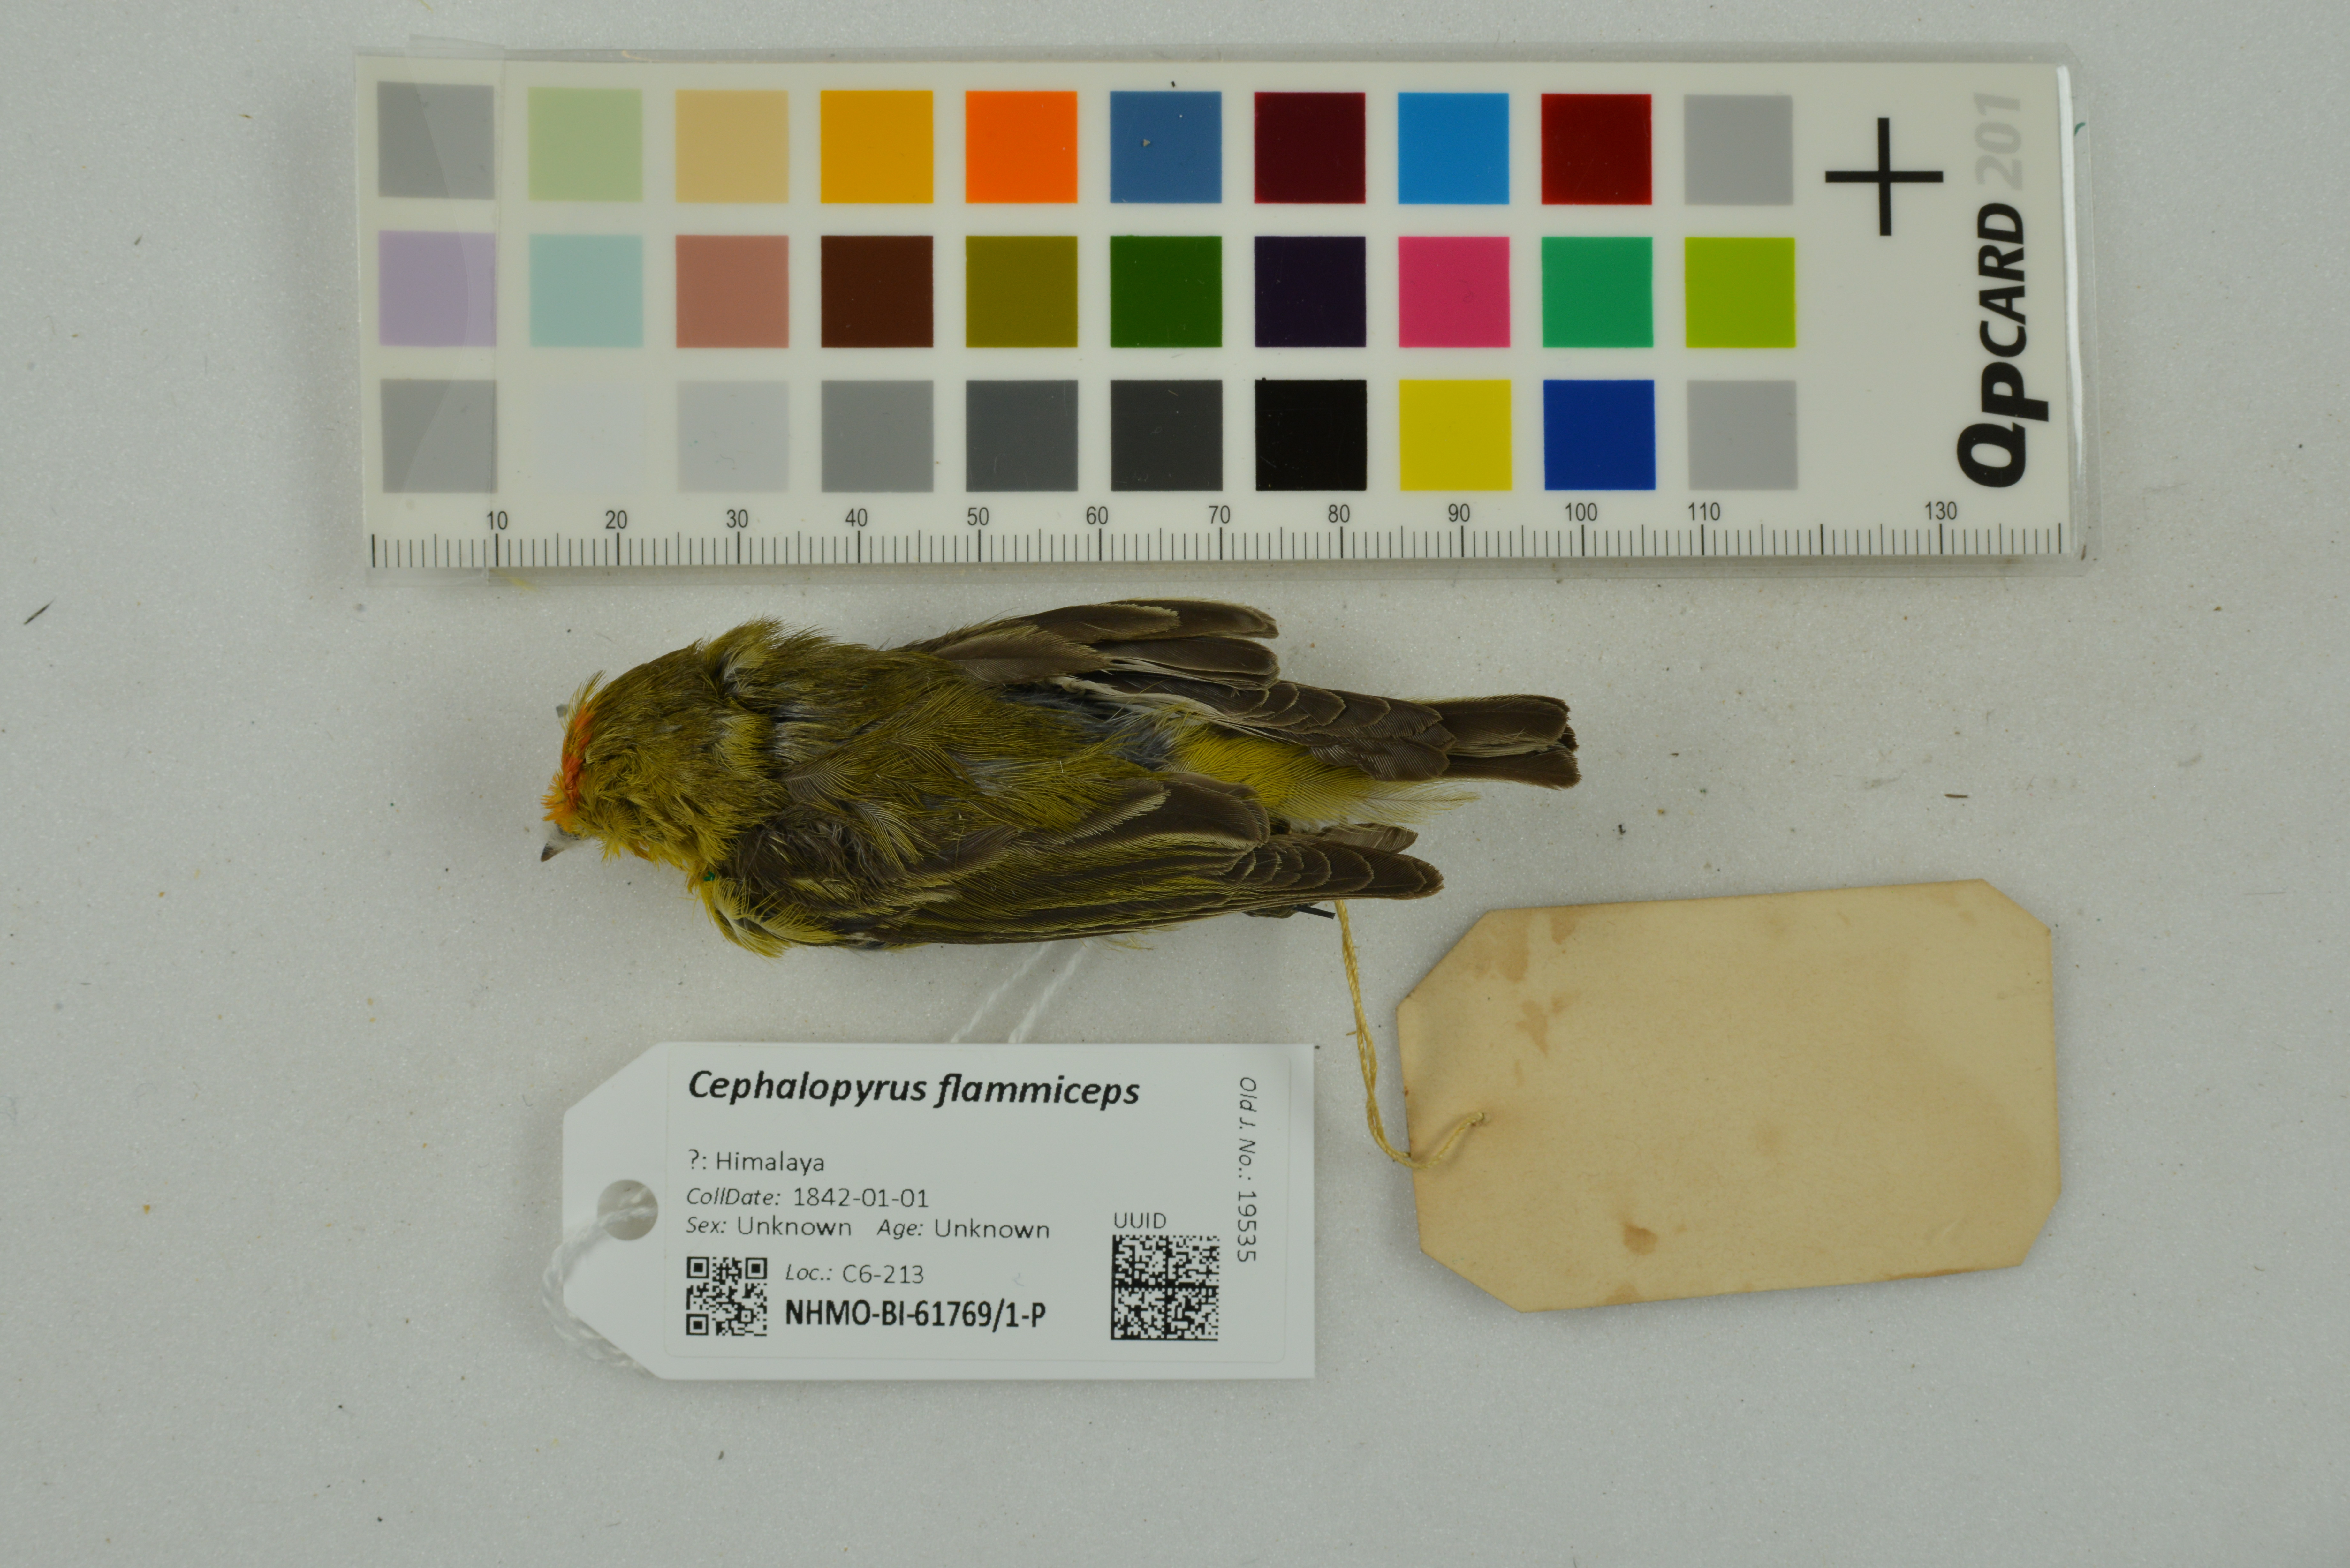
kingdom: Animalia
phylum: Chordata
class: Aves
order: Passeriformes
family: Remizidae
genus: Cephalopyrus
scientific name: Cephalopyrus flammiceps
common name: Fire-capped tit
